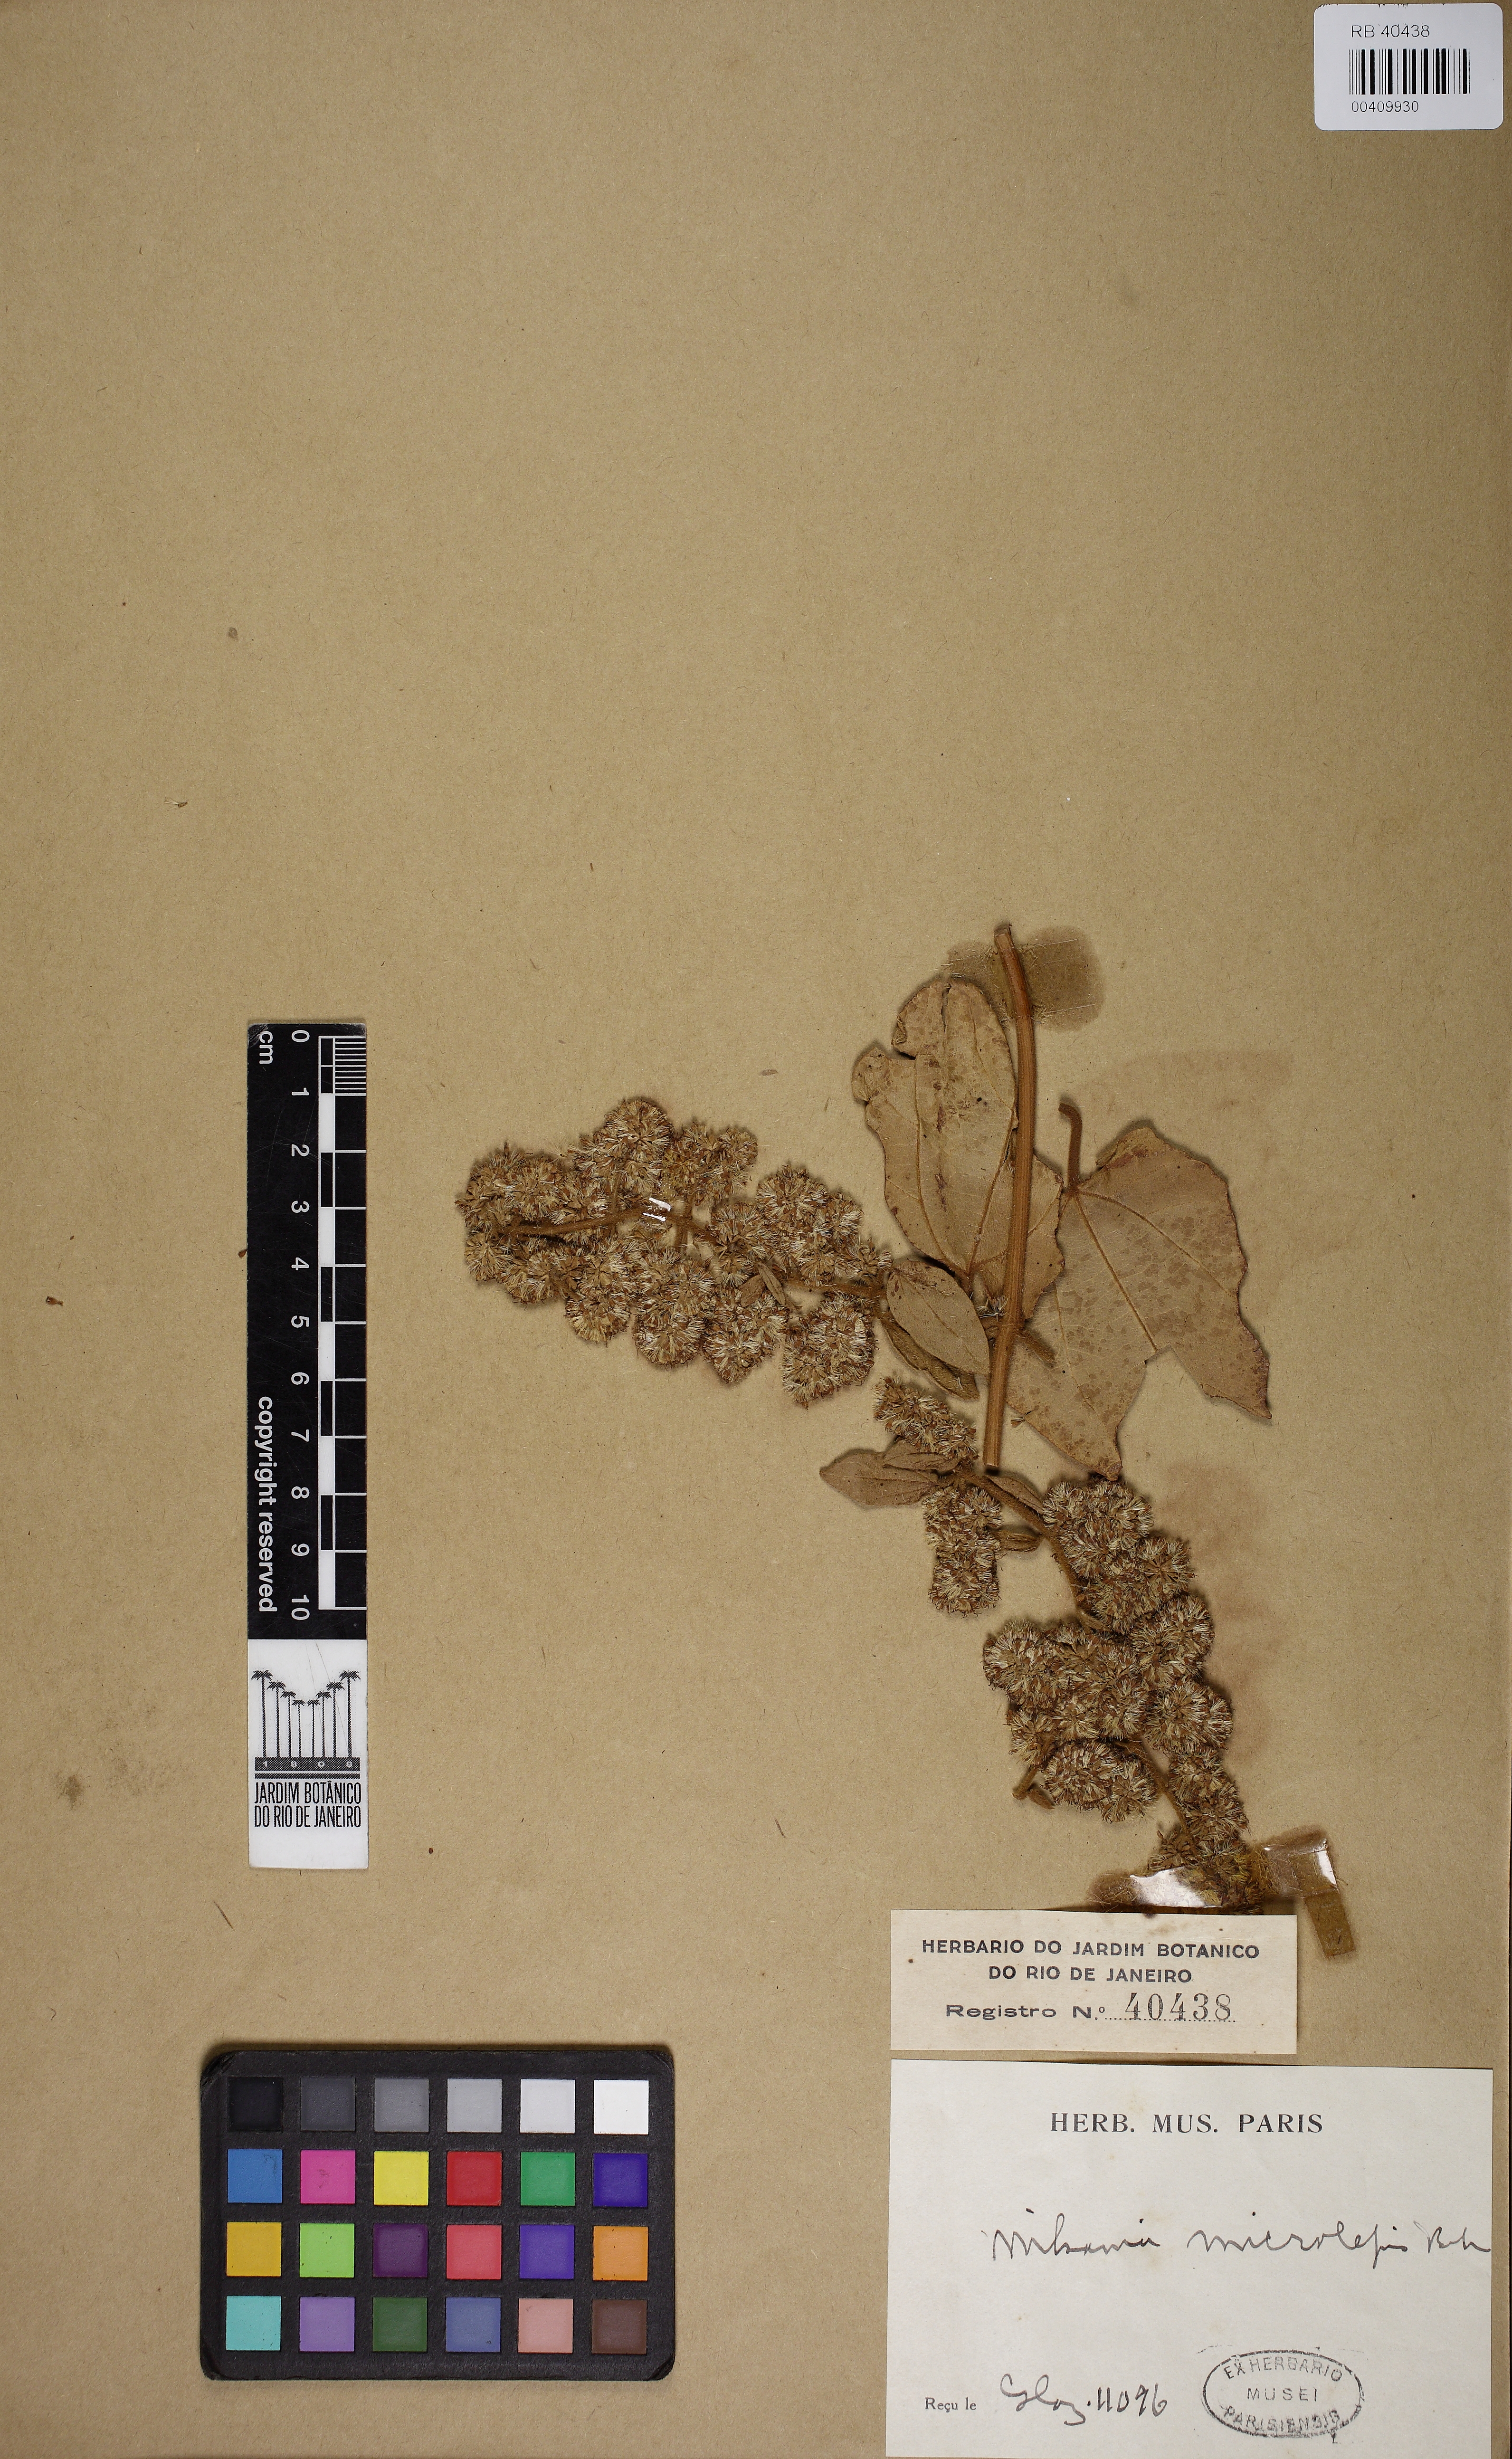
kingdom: Plantae
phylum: Tracheophyta
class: Magnoliopsida
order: Asterales
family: Asteraceae
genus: Mikania
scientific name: Mikania microlepis
